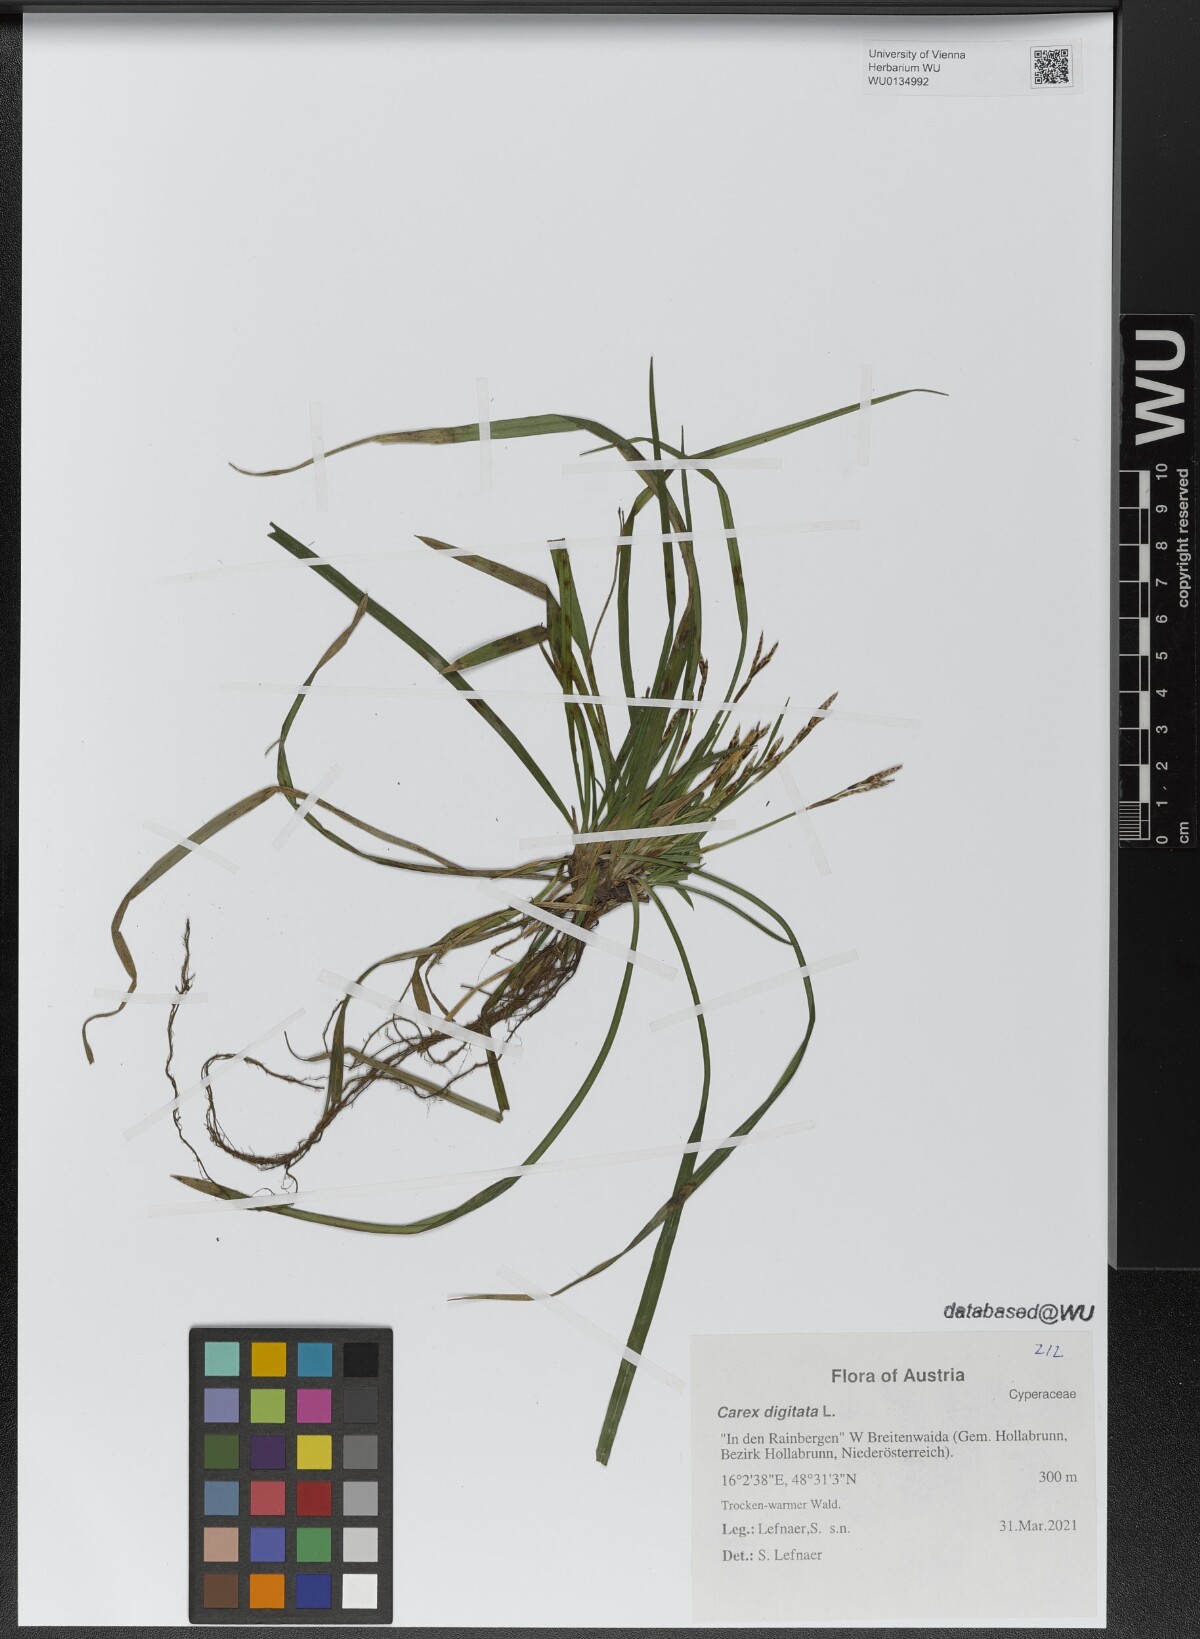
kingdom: Plantae
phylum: Tracheophyta
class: Liliopsida
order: Poales
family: Cyperaceae
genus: Carex
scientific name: Carex digitata
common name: Fingered sedge
